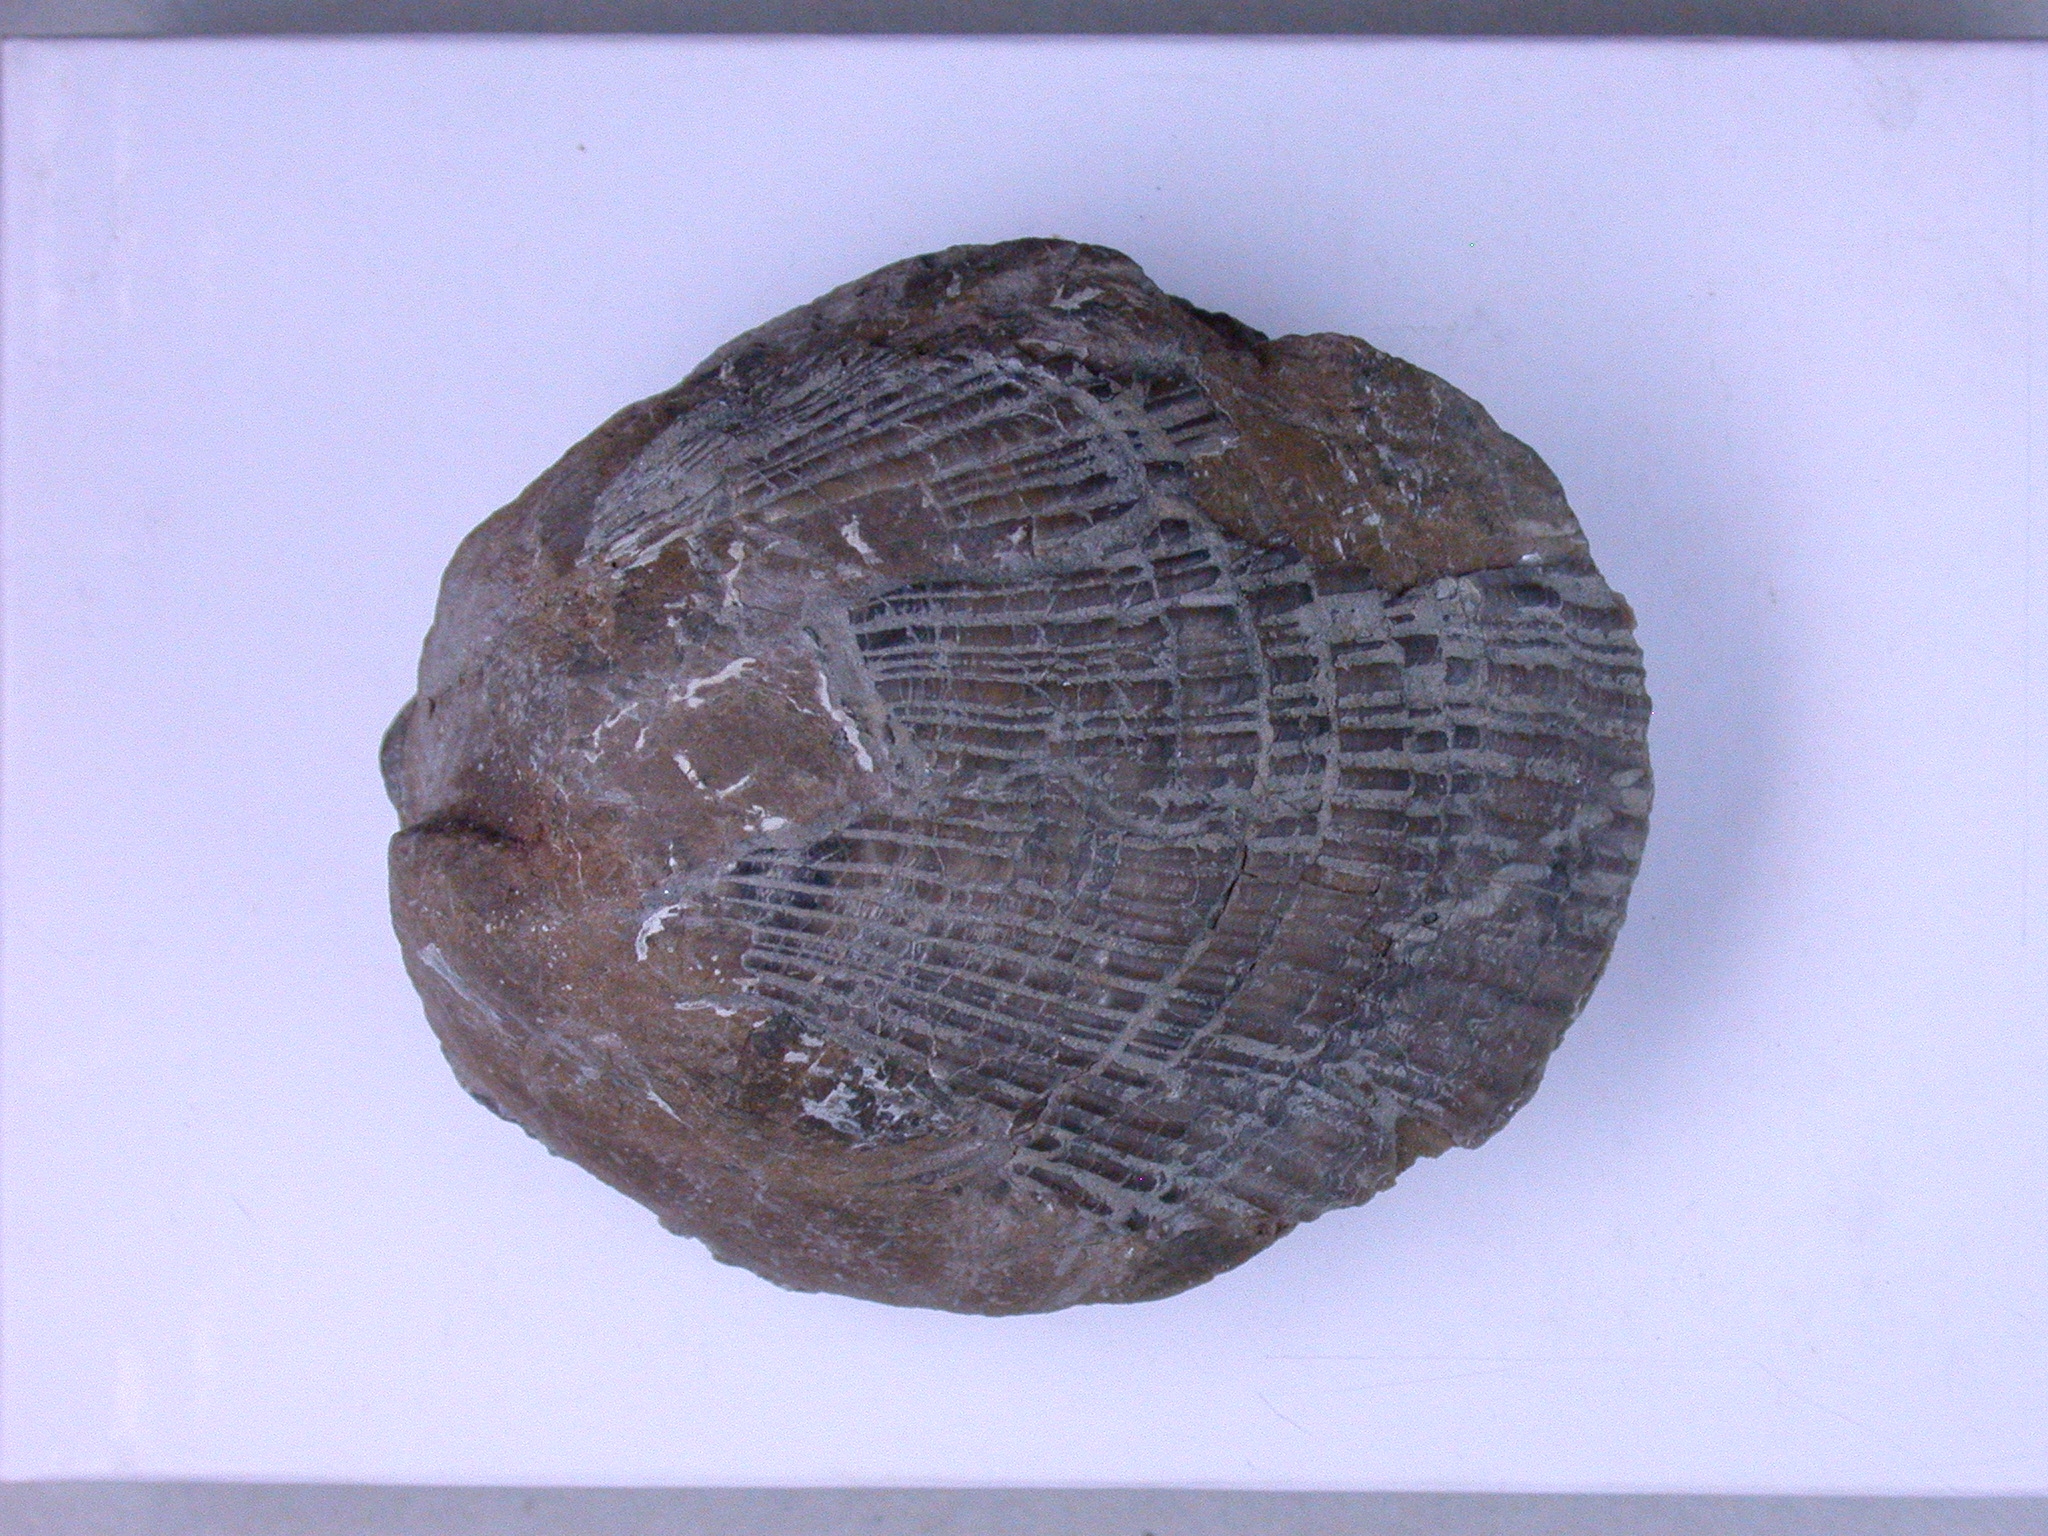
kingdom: Animalia
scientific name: Animalia
